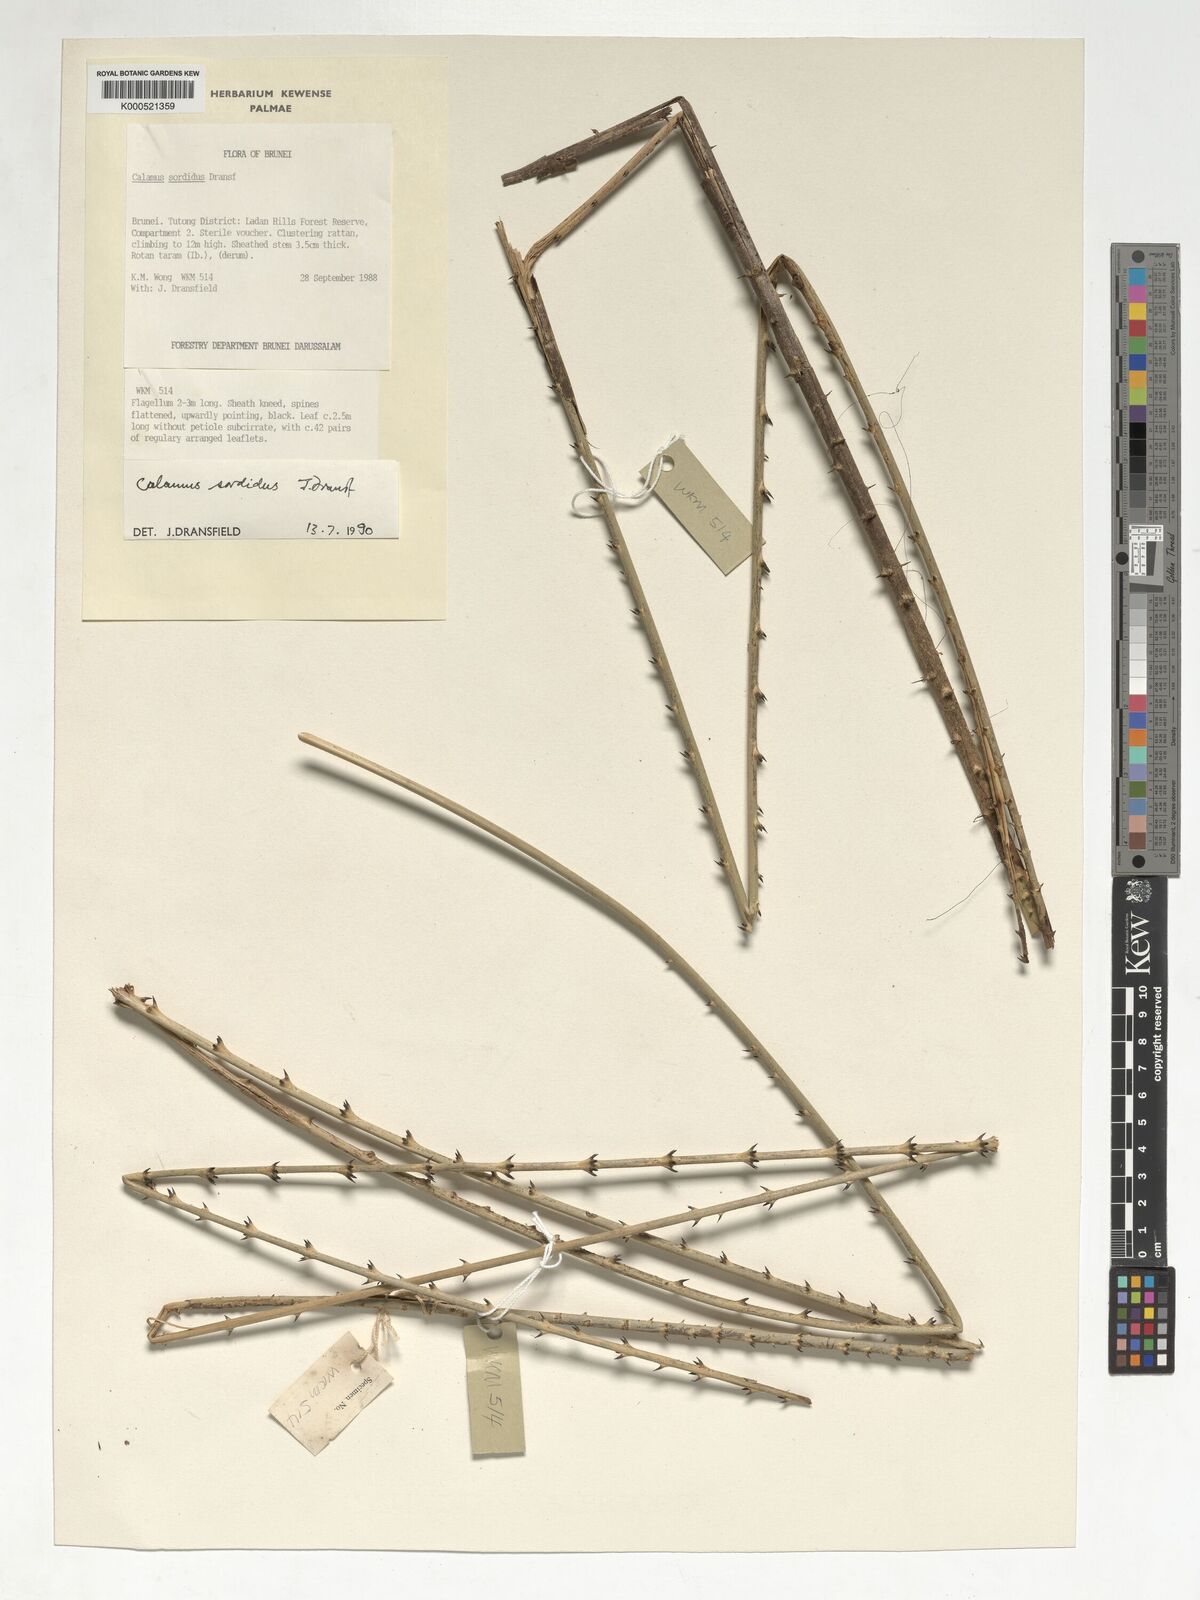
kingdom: Plantae
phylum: Tracheophyta
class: Liliopsida
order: Arecales
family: Arecaceae
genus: Calamus
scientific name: Calamus sordidus
